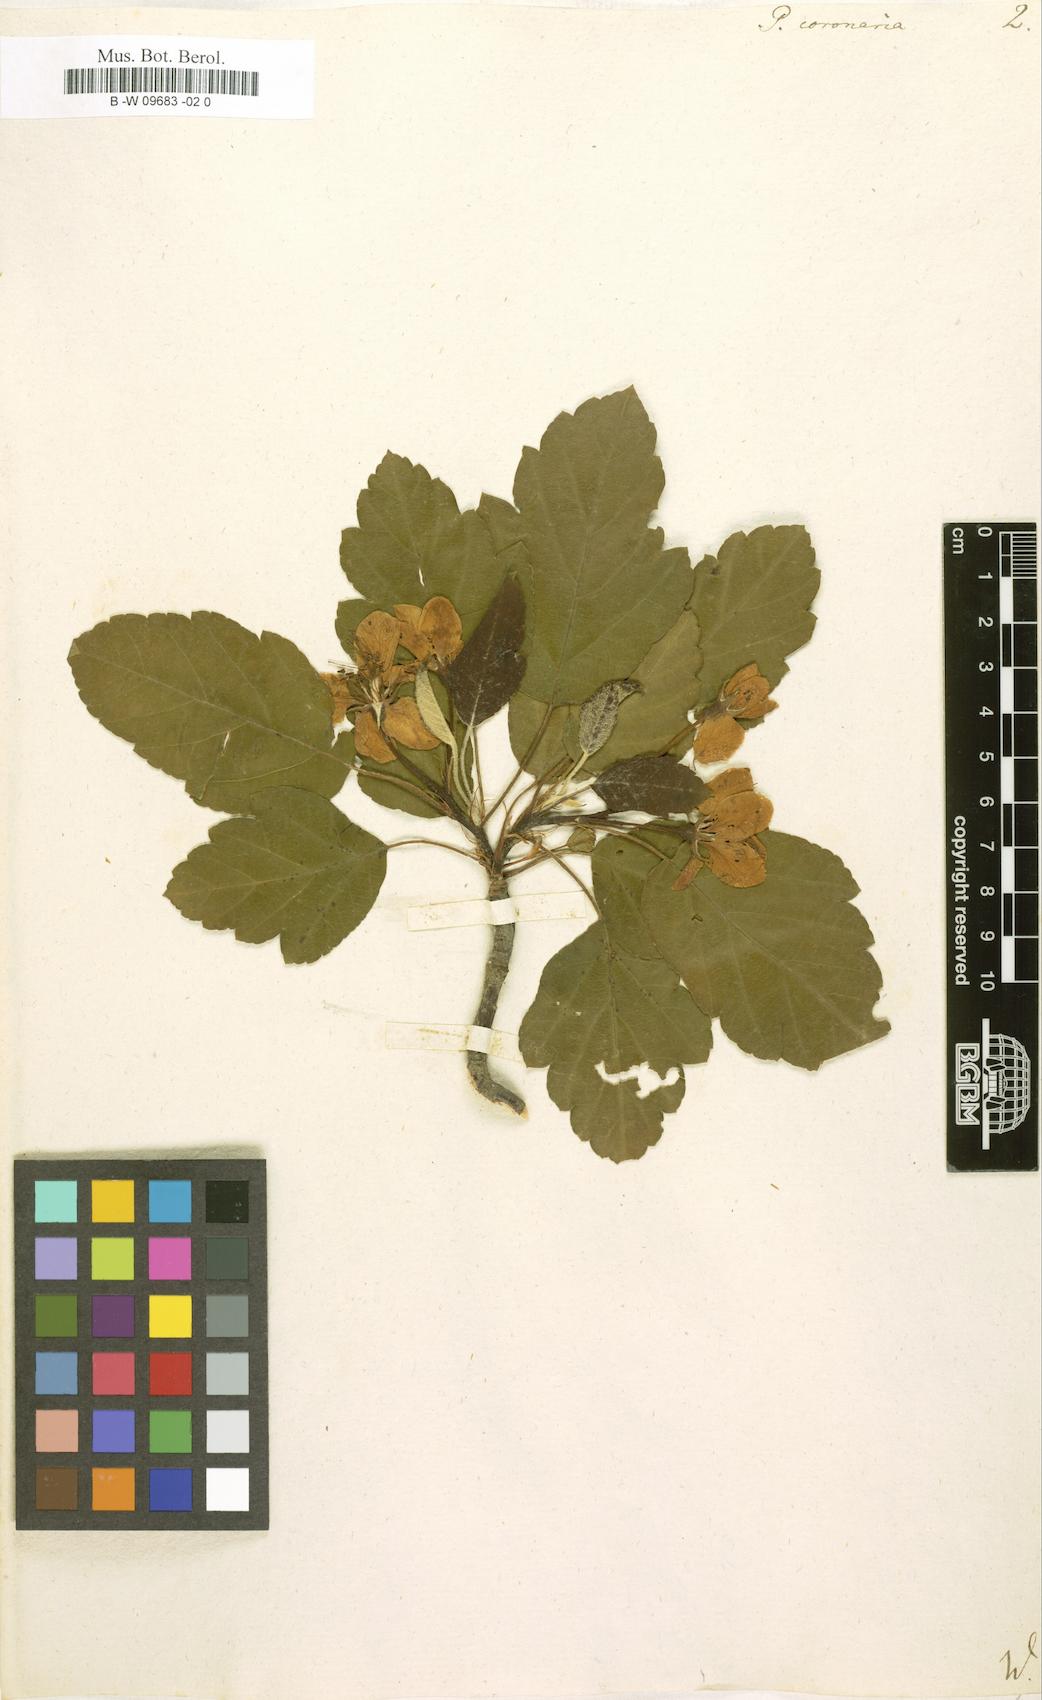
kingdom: Plantae
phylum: Tracheophyta
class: Magnoliopsida
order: Rosales
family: Rosaceae
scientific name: Rosaceae
